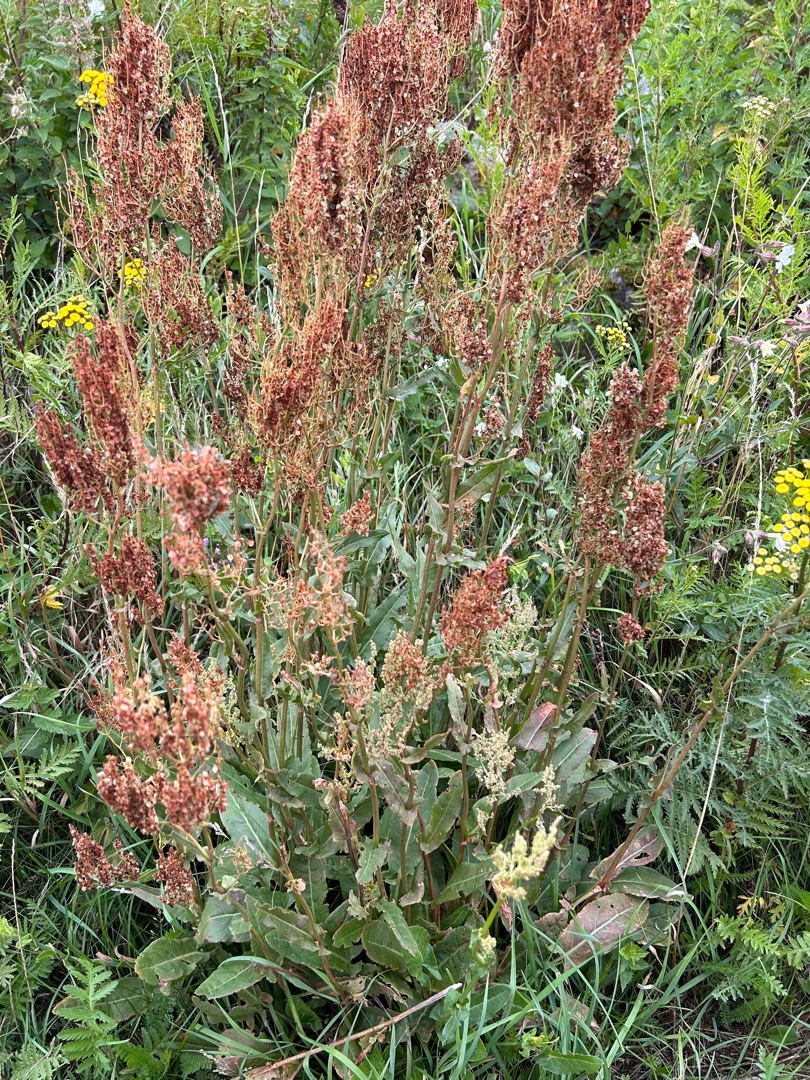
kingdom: Plantae
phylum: Tracheophyta
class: Magnoliopsida
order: Caryophyllales
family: Polygonaceae
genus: Rumex
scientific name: Rumex thyrsiflorus
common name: Dusk-syre
